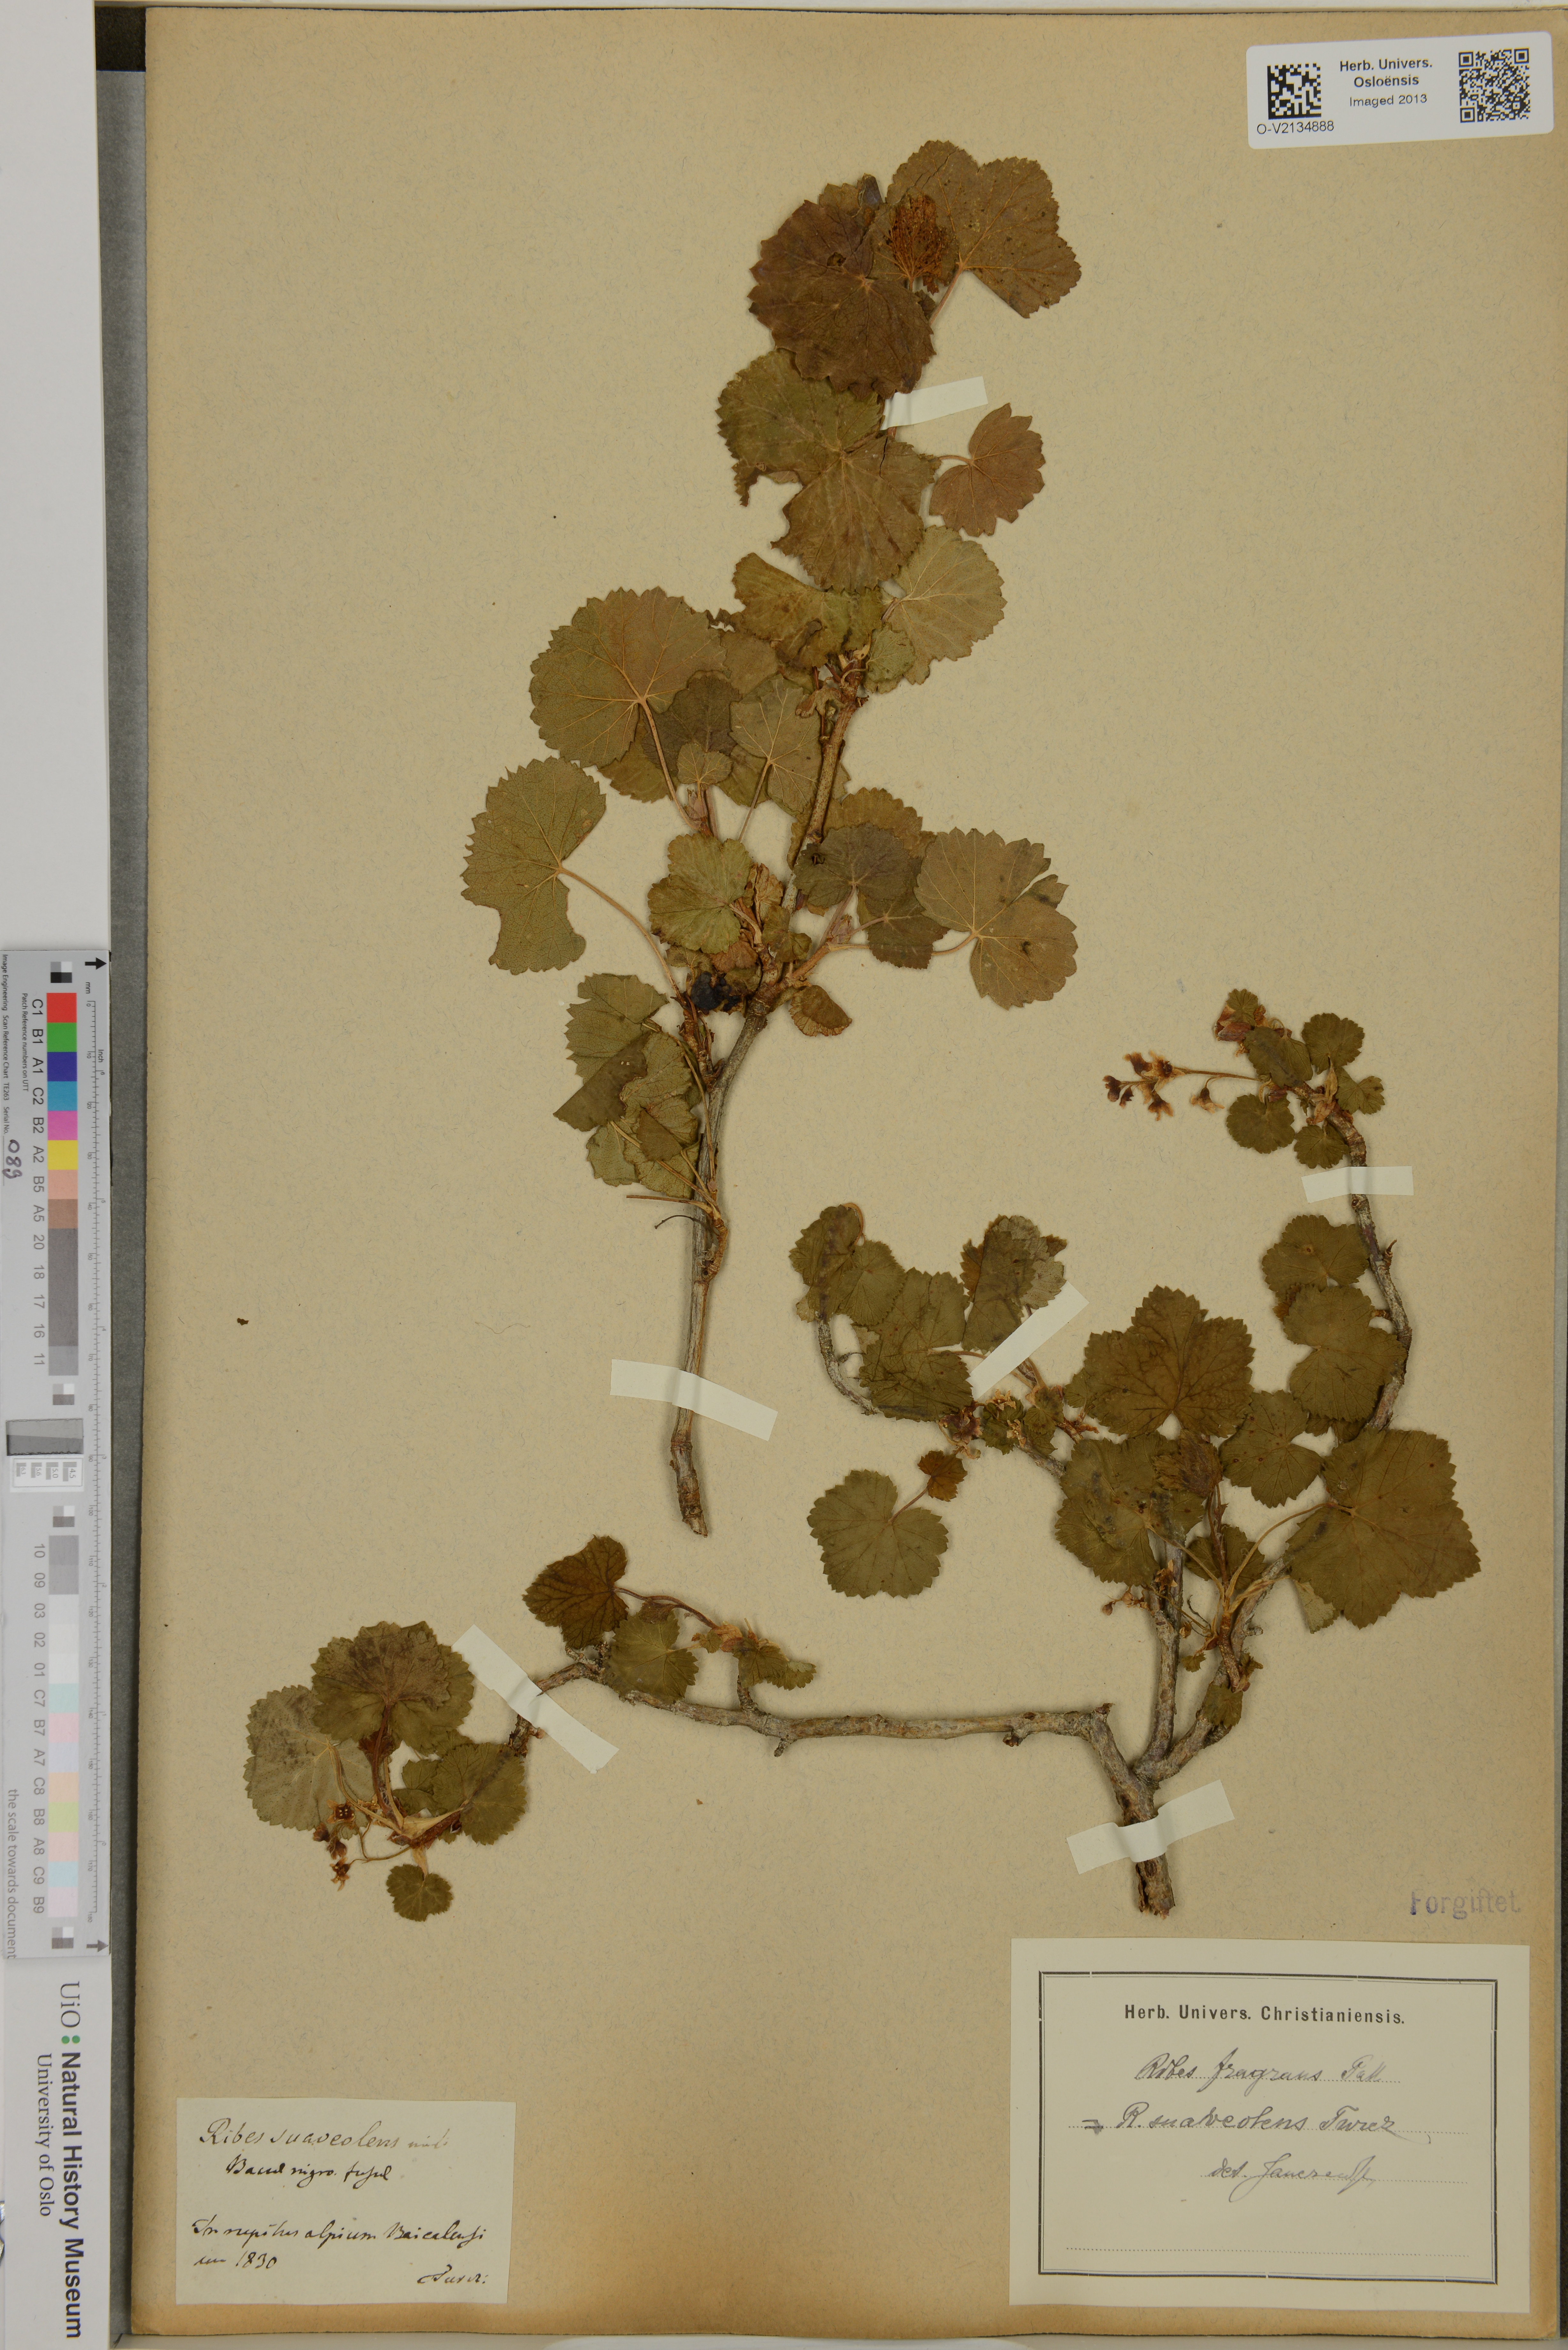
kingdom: Plantae
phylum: Tracheophyta
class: Magnoliopsida
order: Saxifragales
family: Grossulariaceae
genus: Ribes
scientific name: Ribes fragrans
